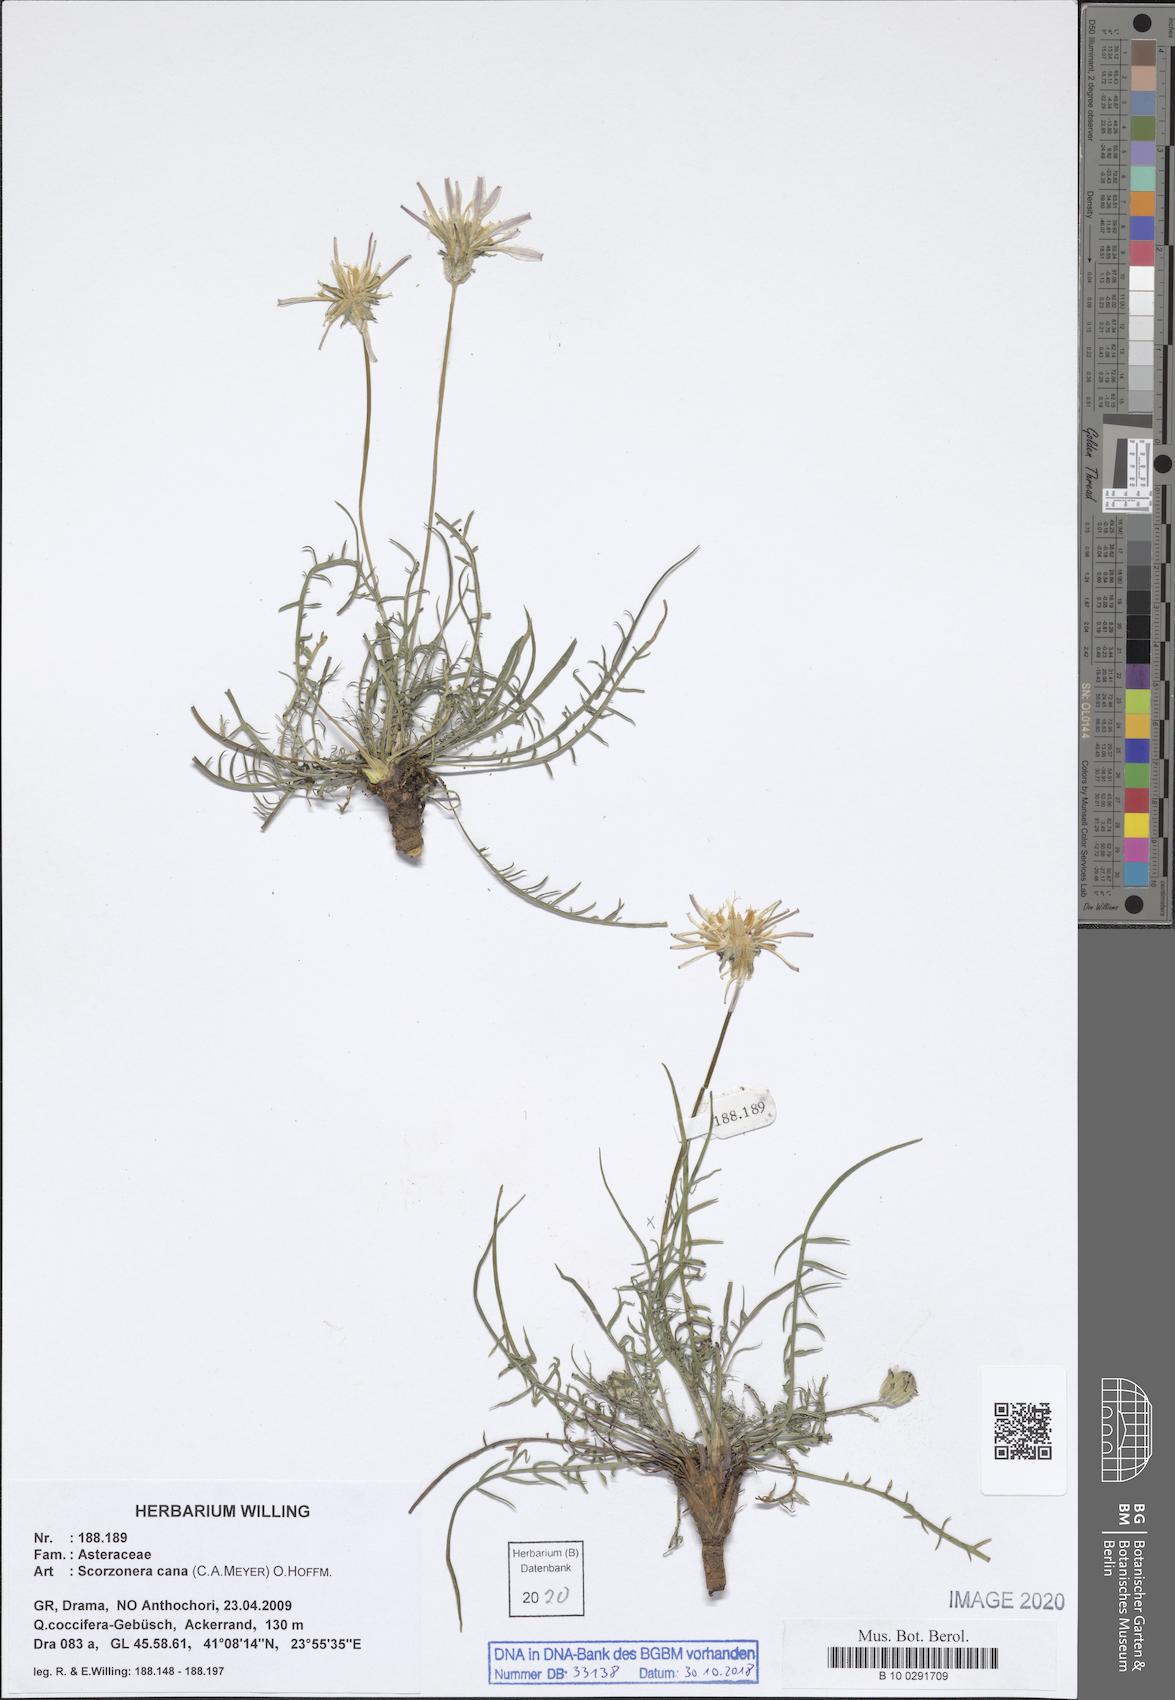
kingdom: Plantae
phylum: Tracheophyta
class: Magnoliopsida
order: Asterales
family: Asteraceae
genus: Scorzonera
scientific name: Scorzonera cana
